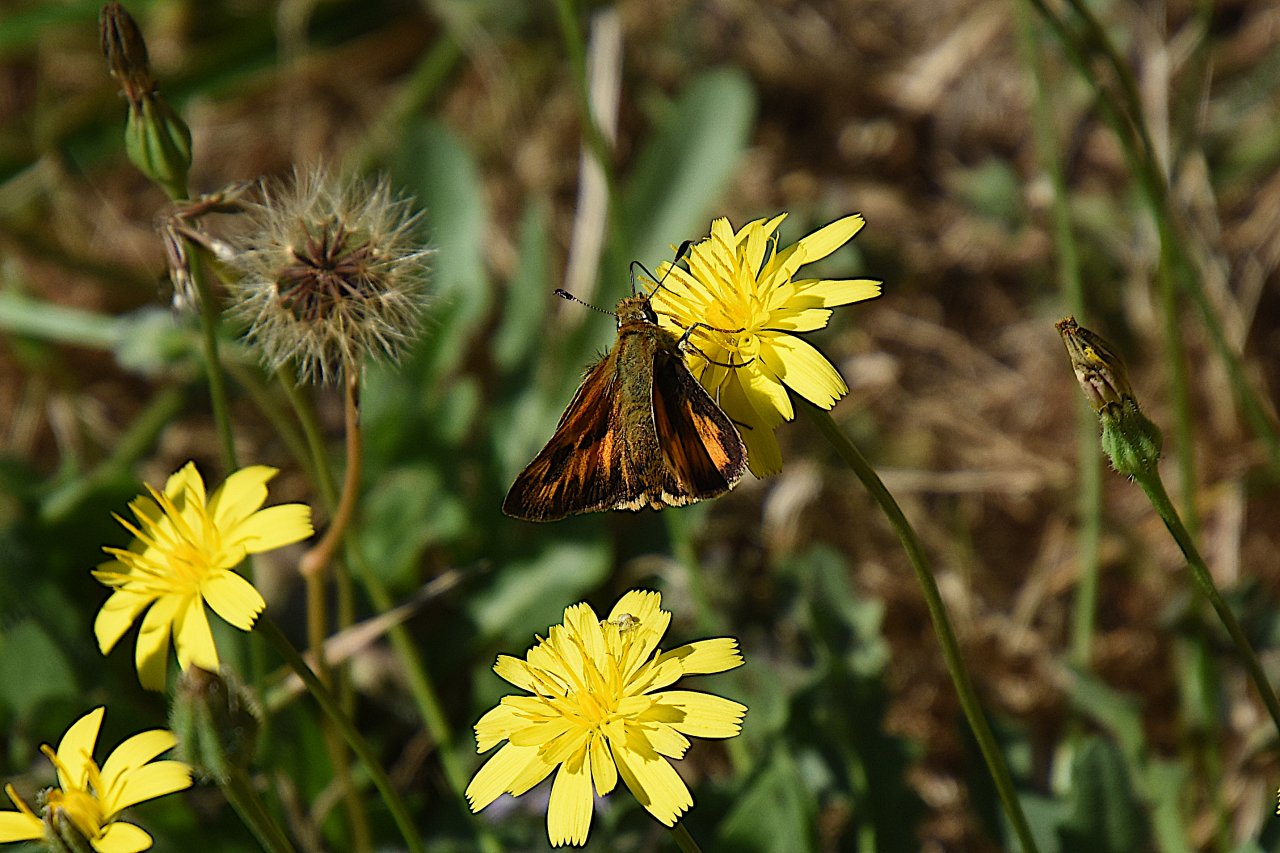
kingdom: Animalia
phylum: Arthropoda
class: Insecta
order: Lepidoptera
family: Hesperiidae
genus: Ochlodes
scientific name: Ochlodes sylvanoides
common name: Woodland Skipper
